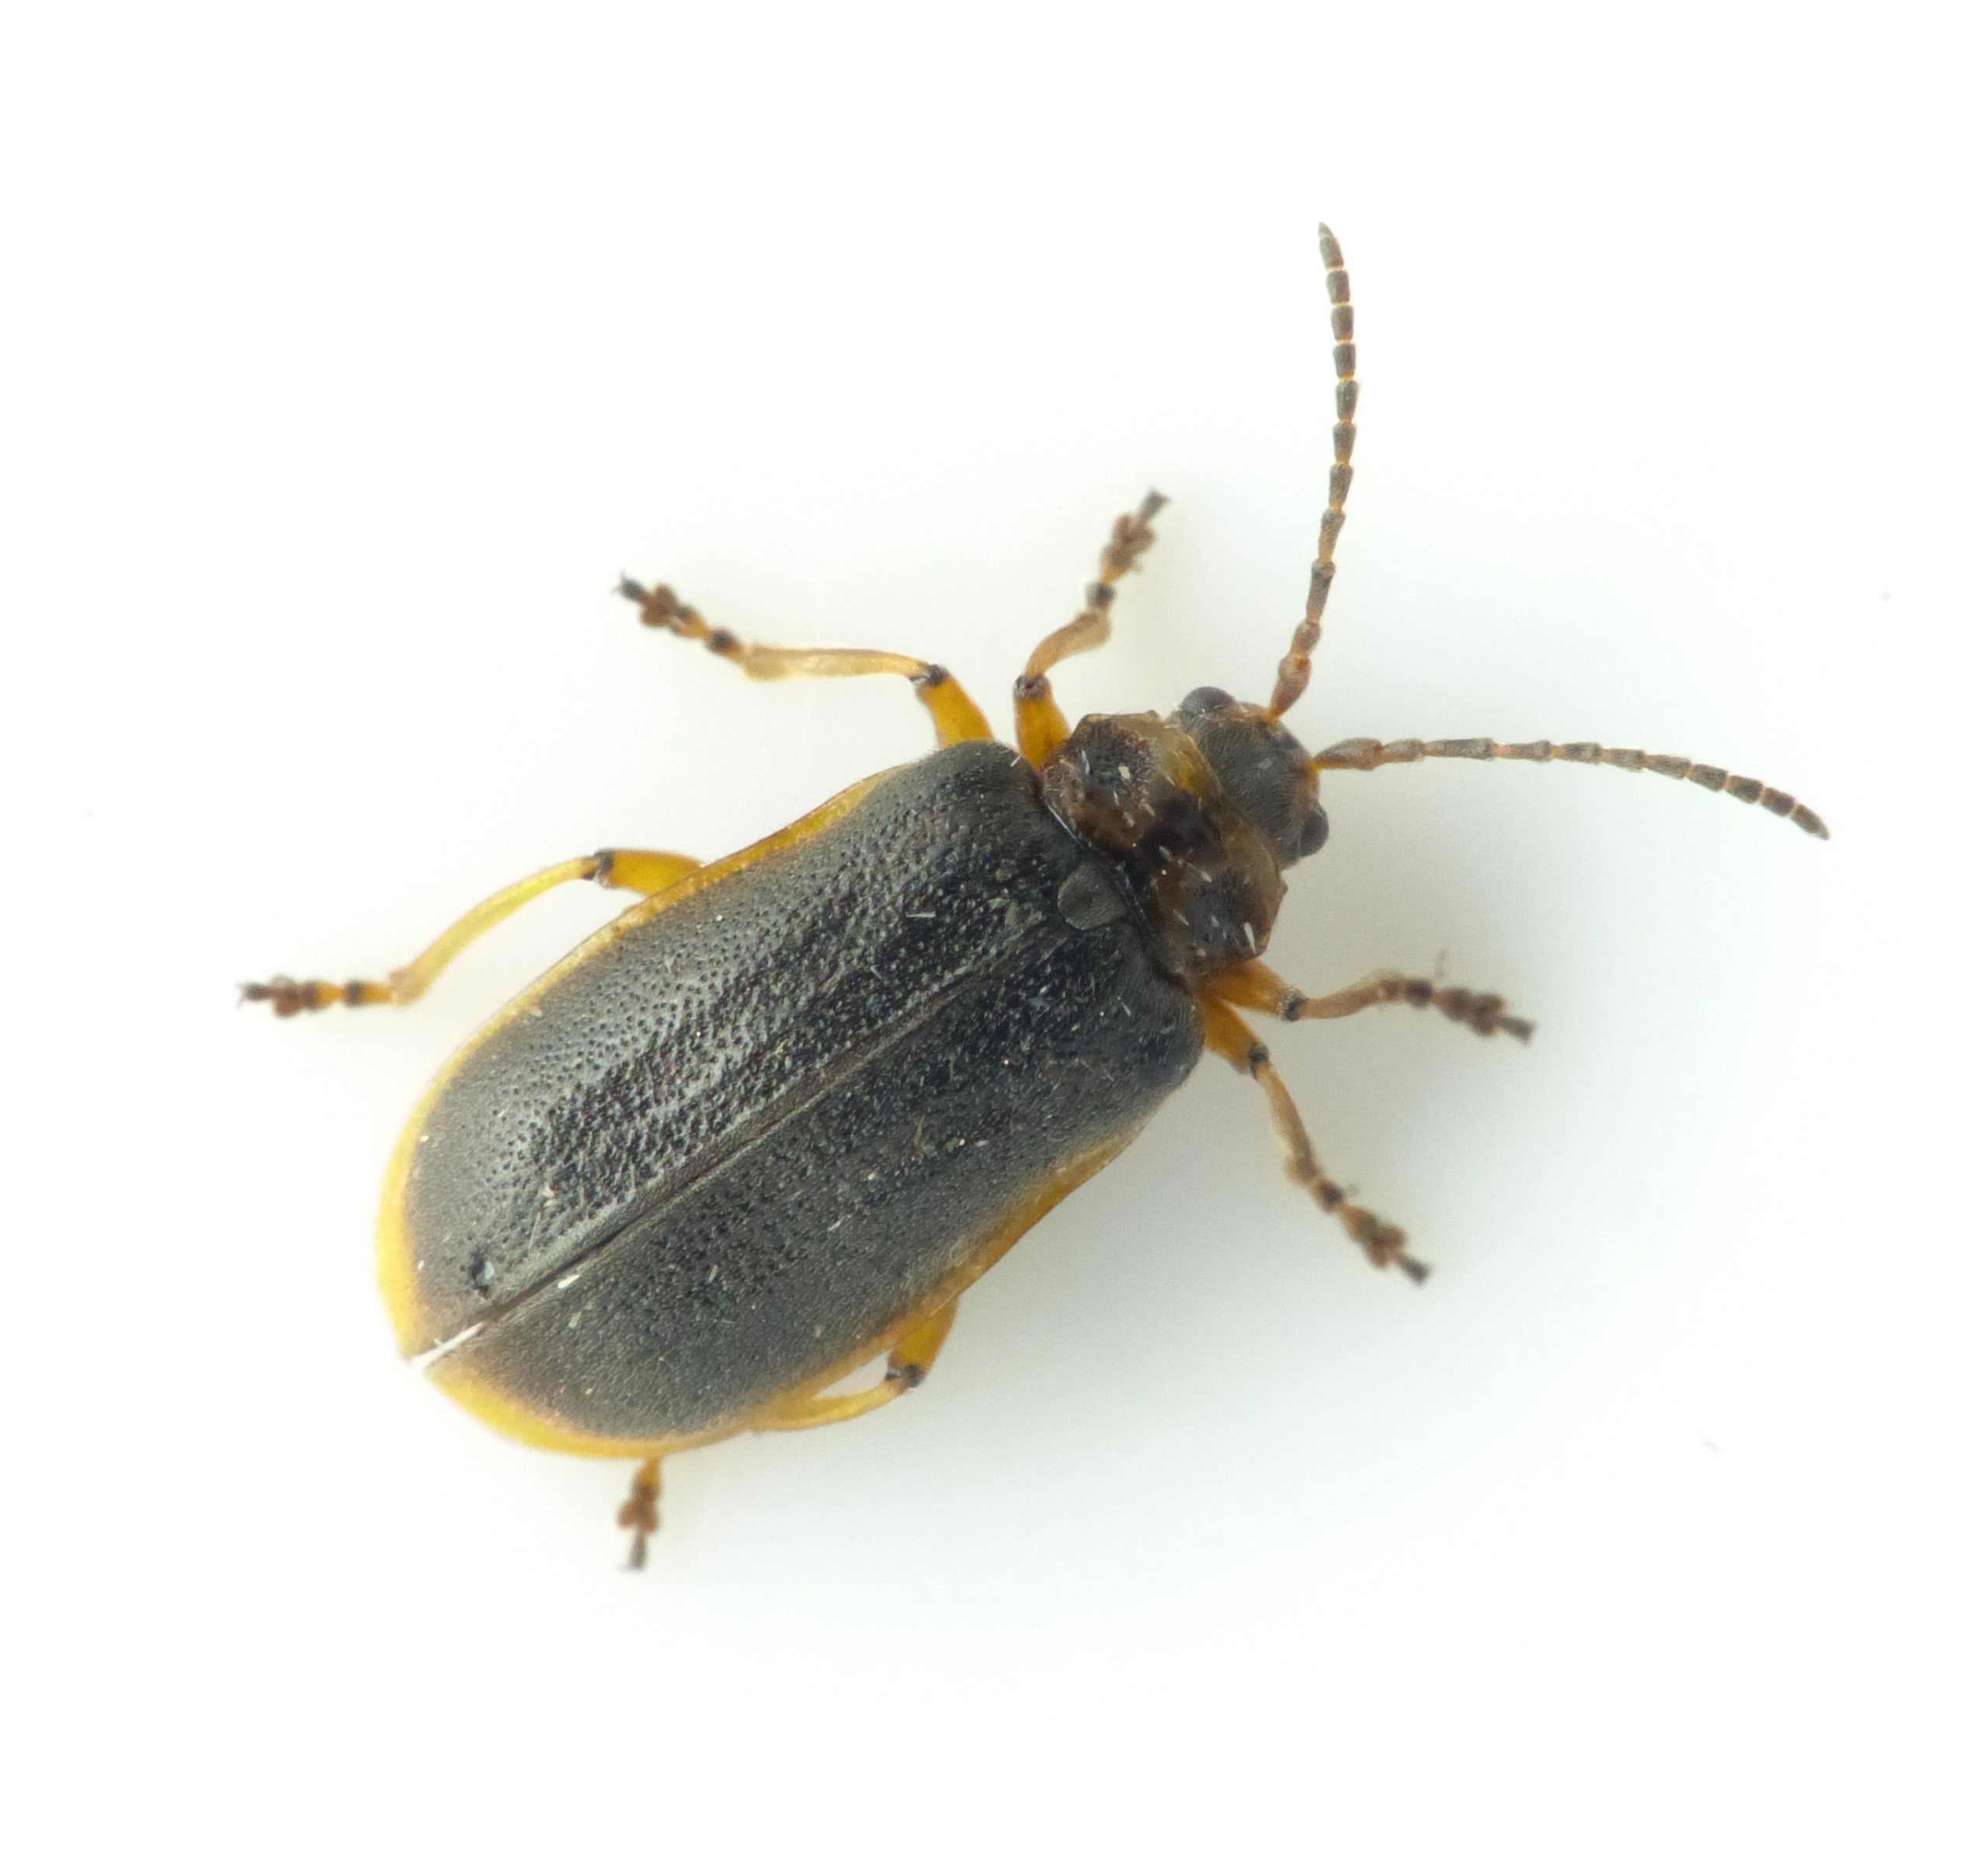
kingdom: Animalia
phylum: Arthropoda
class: Insecta
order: Coleoptera
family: Chrysomelidae
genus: Galerucella
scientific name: Galerucella nymphaeae
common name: Åkandebille
